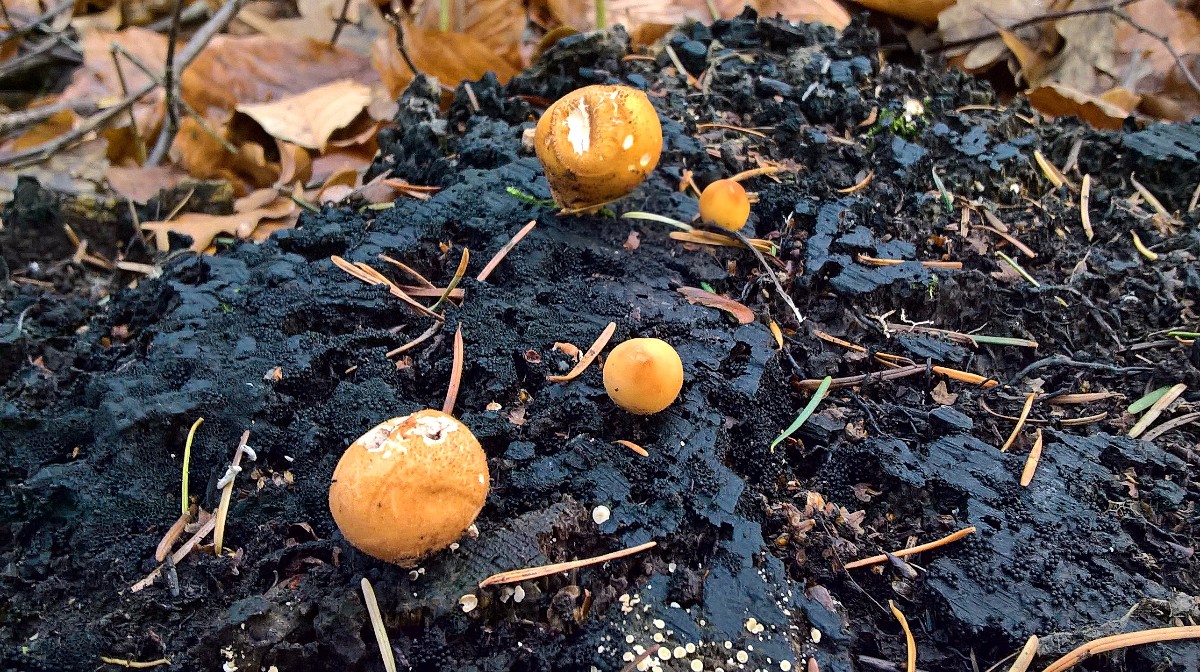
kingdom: Fungi
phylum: Basidiomycota
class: Agaricomycetes
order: Agaricales
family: Lycoperdaceae
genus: Apioperdon
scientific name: Apioperdon pyriforme
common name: pære-støvbold
